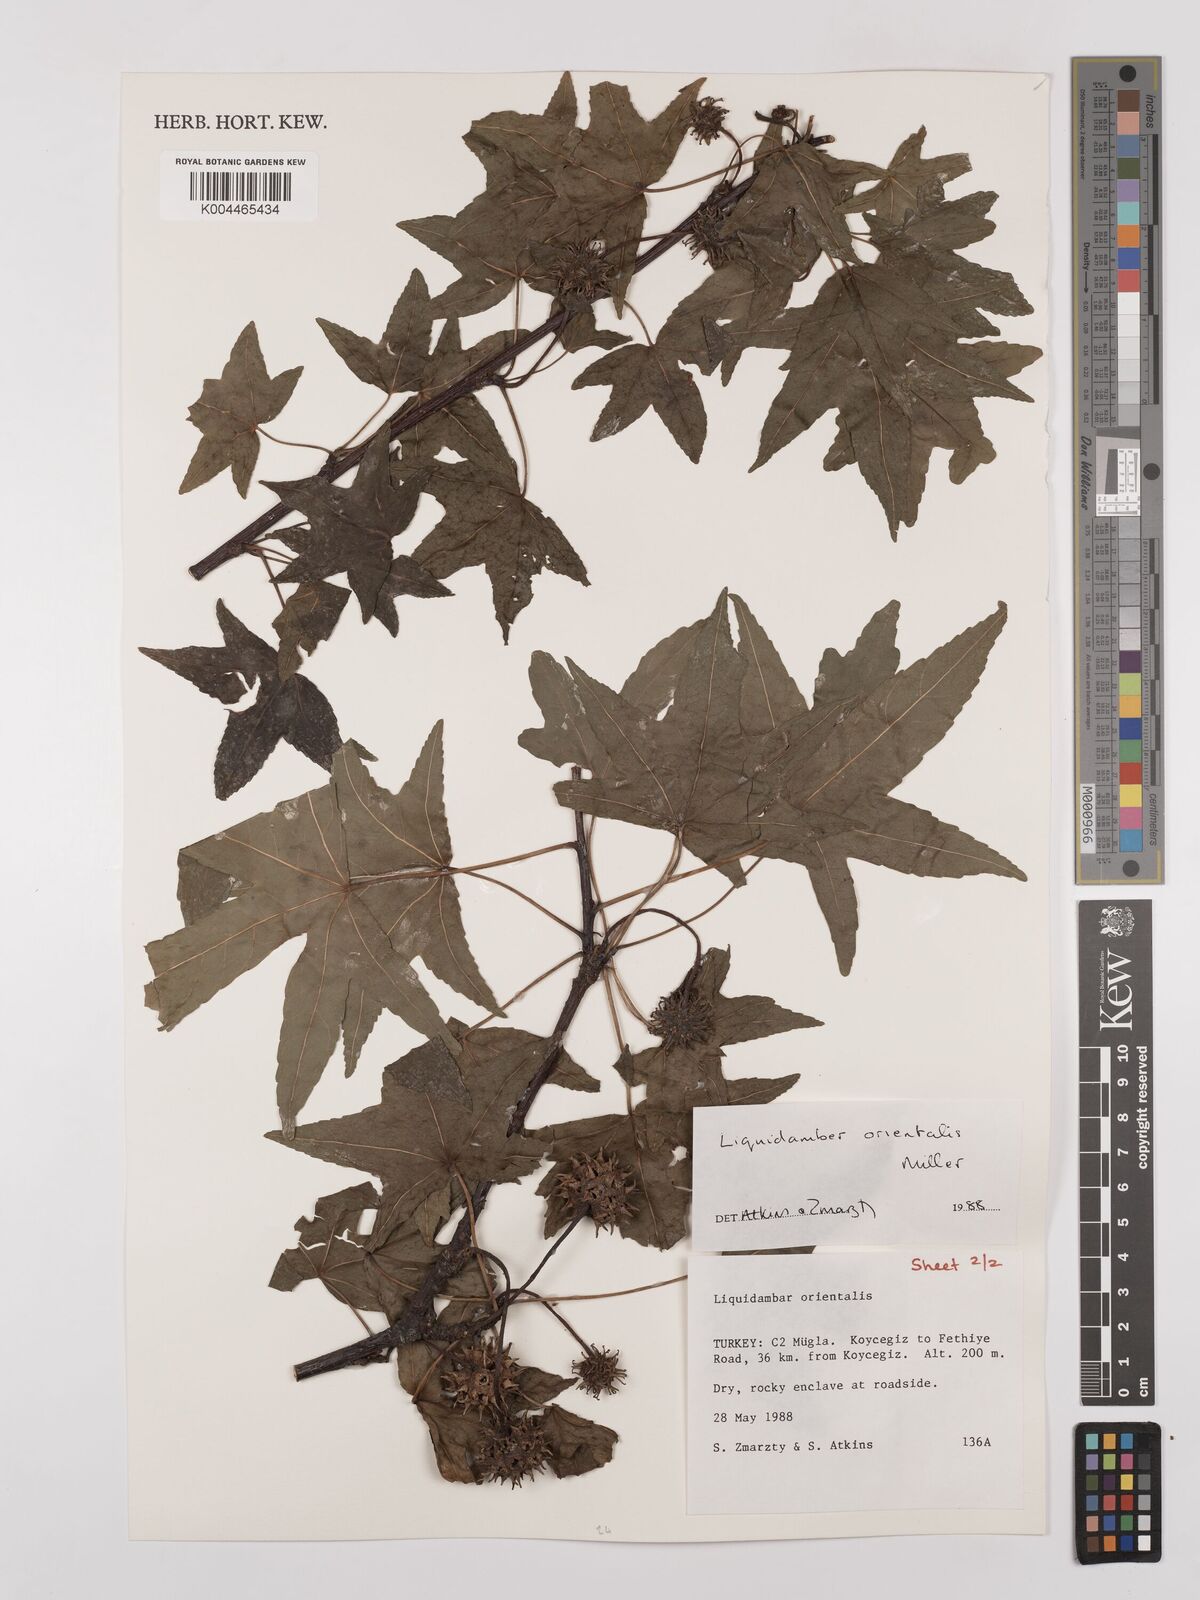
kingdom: Plantae
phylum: Tracheophyta
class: Magnoliopsida
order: Saxifragales
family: Altingiaceae
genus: Liquidambar
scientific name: Liquidambar orientalis
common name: Oriental sweetgum
